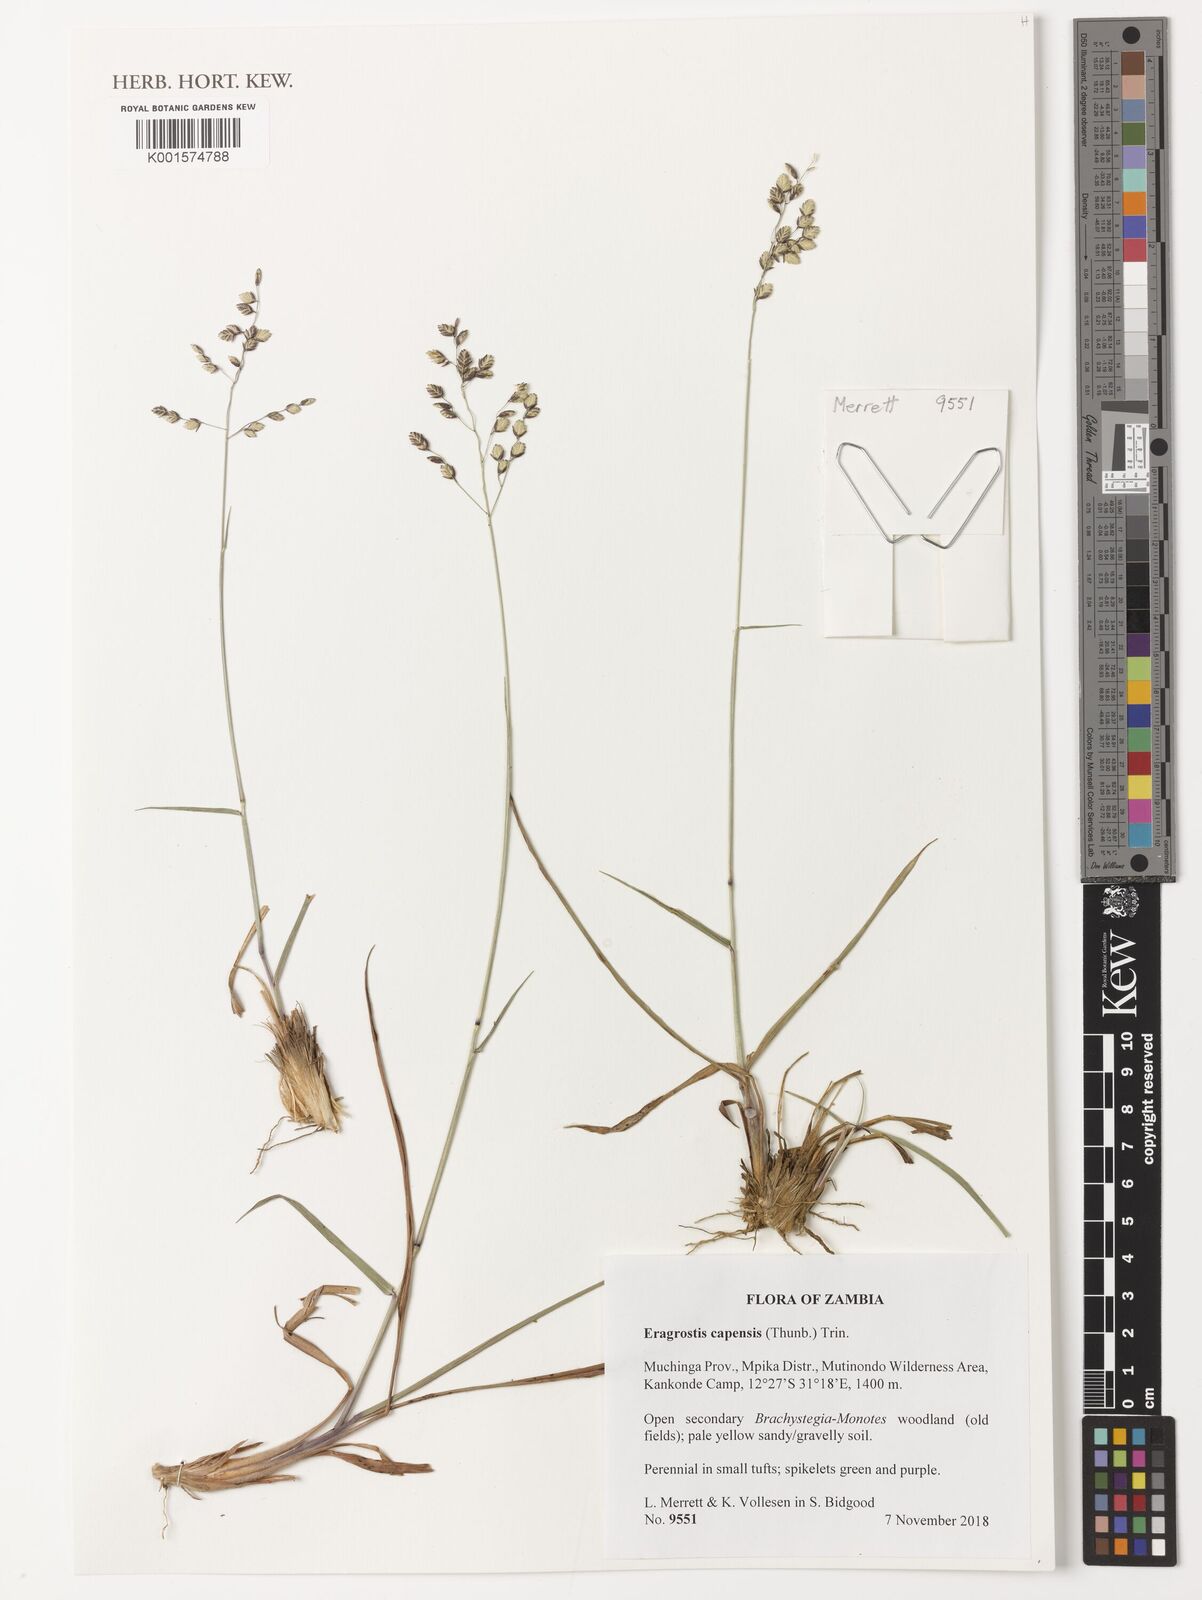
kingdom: Plantae
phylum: Tracheophyta
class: Liliopsida
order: Poales
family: Poaceae
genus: Eragrostis
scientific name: Eragrostis capensis
